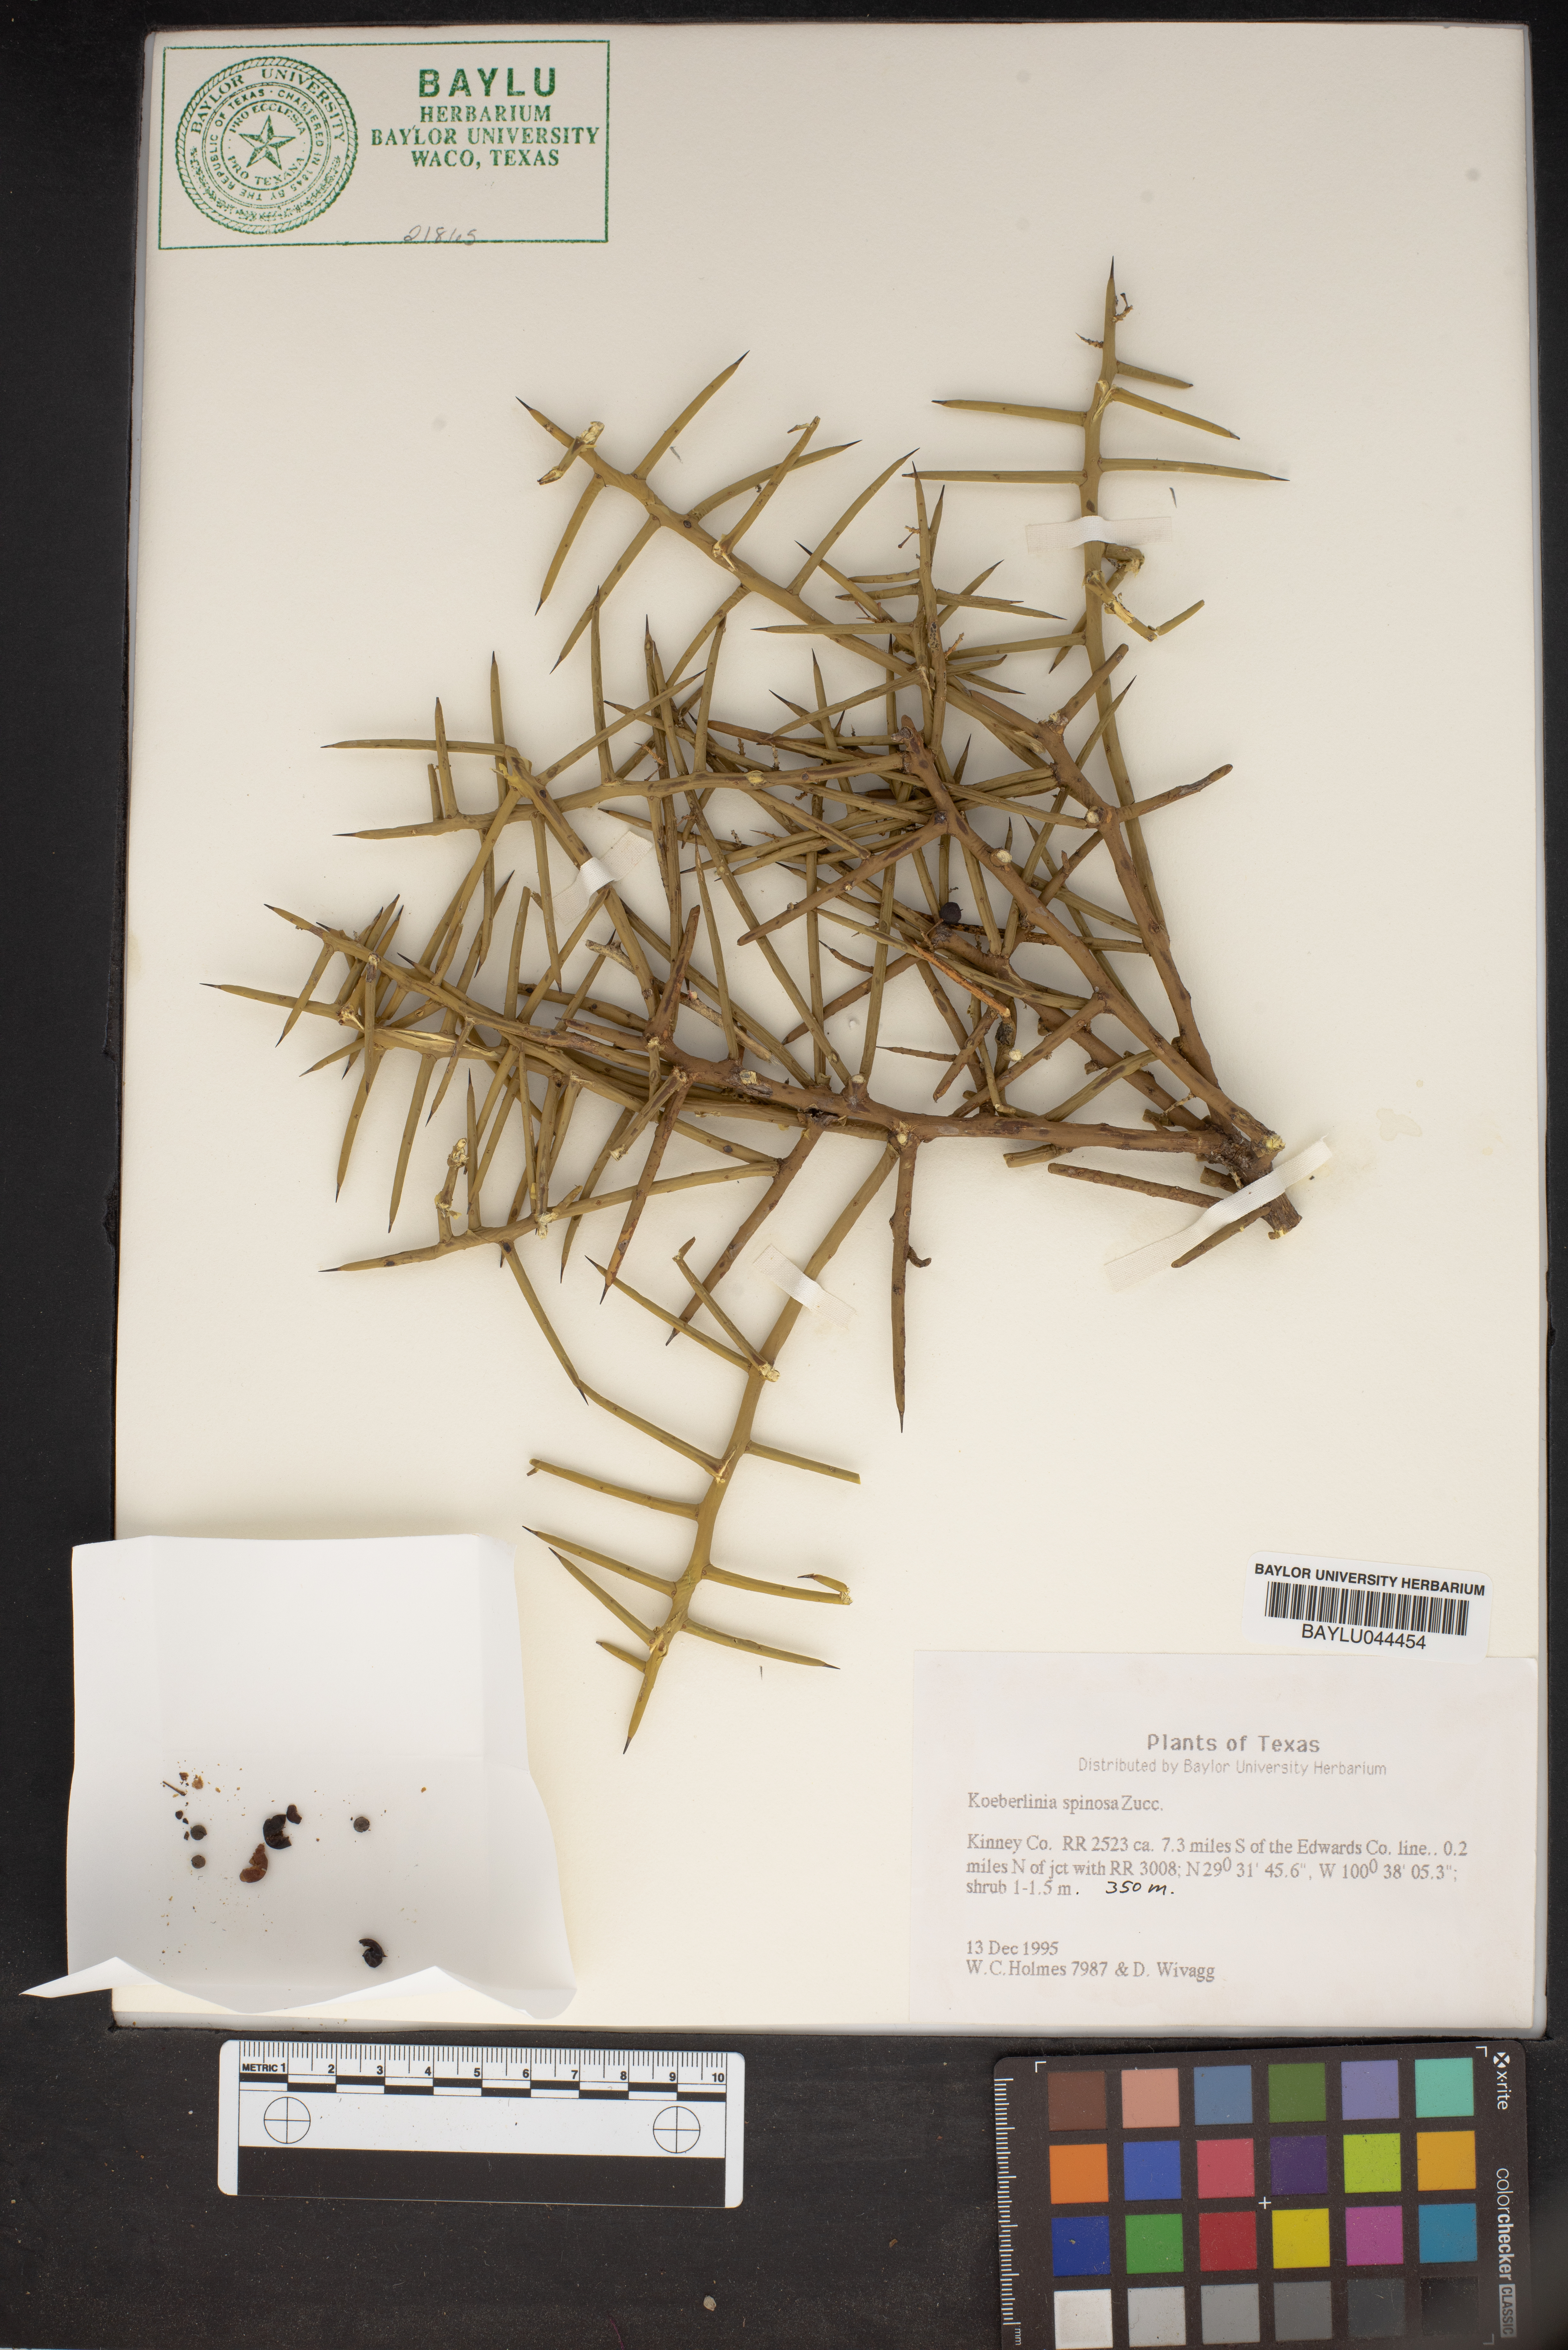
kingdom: Plantae
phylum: Tracheophyta
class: Magnoliopsida
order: Brassicales
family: Koeberliniaceae
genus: Koeberlinia
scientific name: Koeberlinia spinosa
